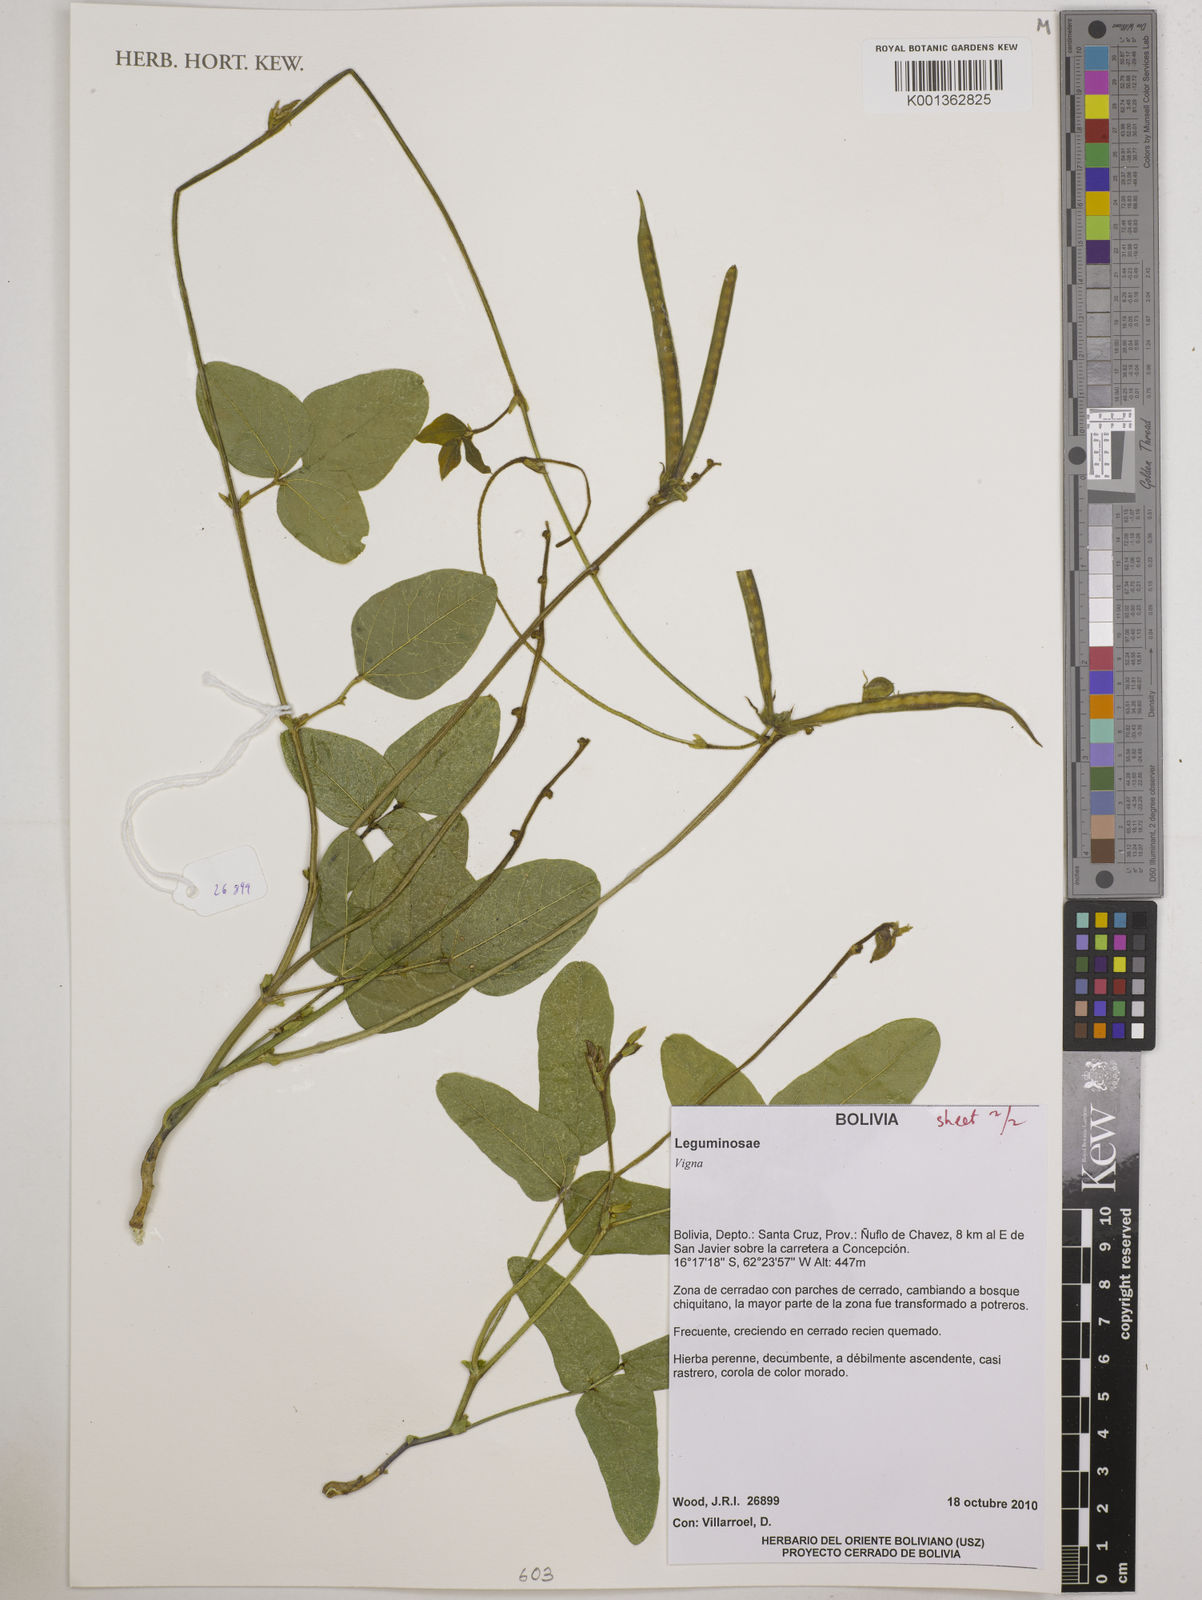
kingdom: Plantae
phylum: Tracheophyta
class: Magnoliopsida
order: Fabales
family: Fabaceae
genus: Vigna
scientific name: Vigna
